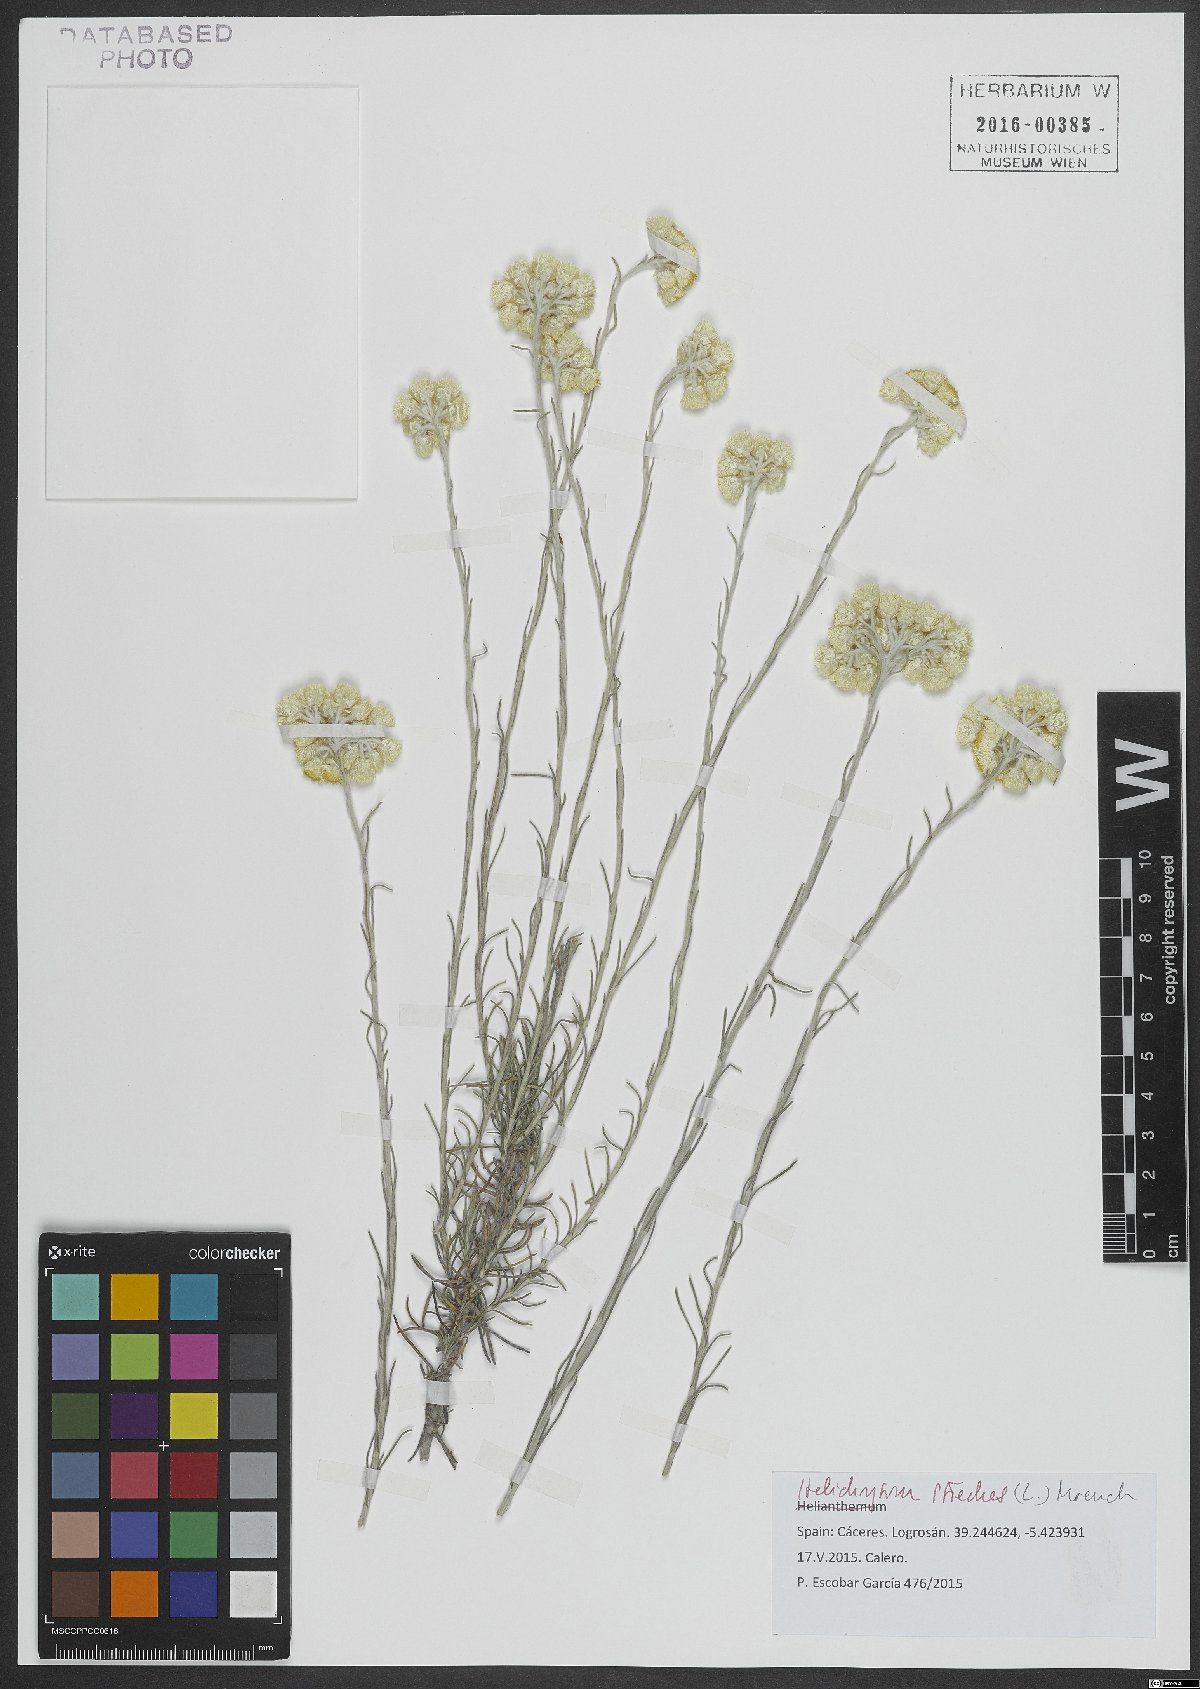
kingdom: Plantae
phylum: Tracheophyta
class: Magnoliopsida
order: Asterales
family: Asteraceae
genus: Helichrysum
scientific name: Helichrysum stoechas
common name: Goldilocks
